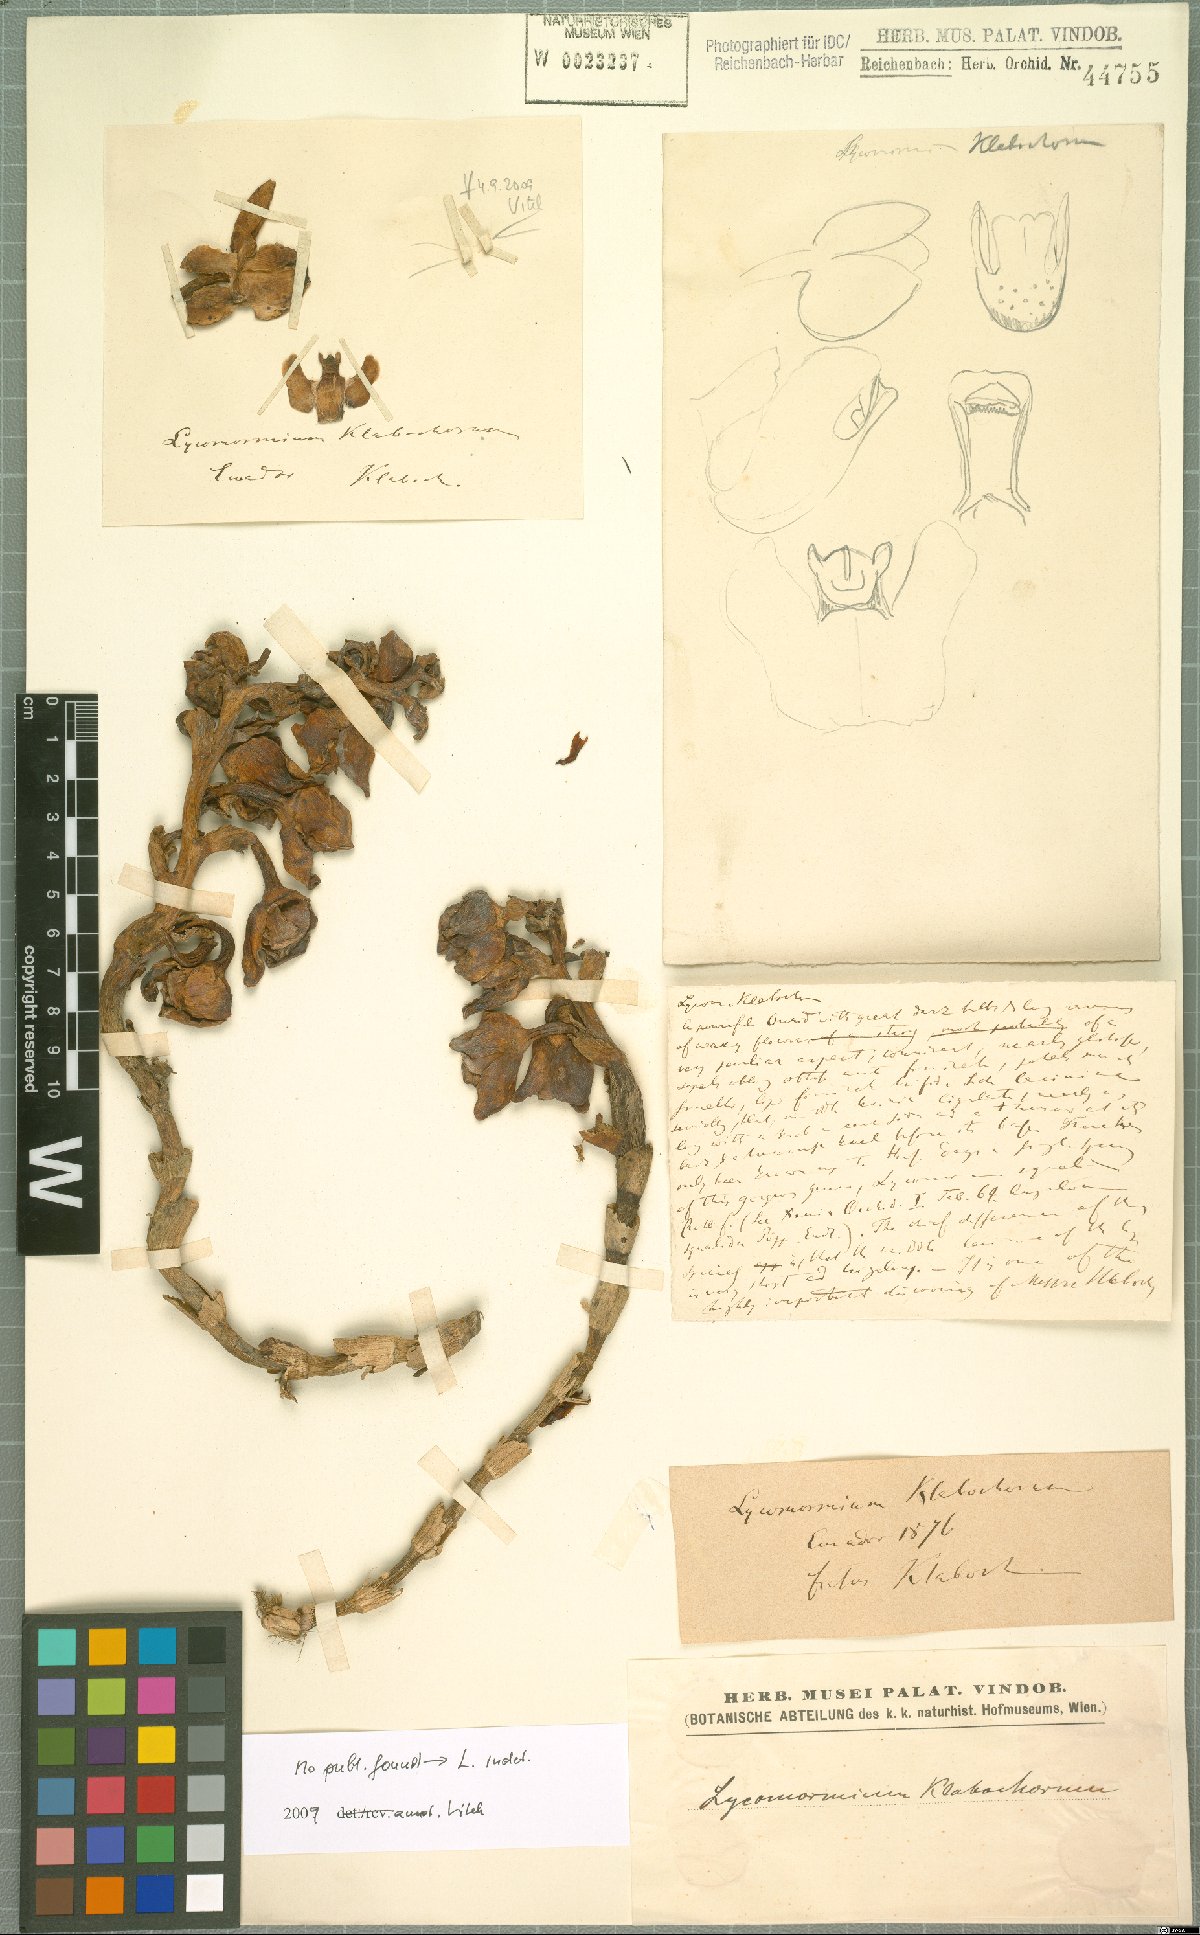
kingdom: Plantae
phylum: Tracheophyta
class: Liliopsida
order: Asparagales
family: Orchidaceae
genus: Lycomormium
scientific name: Lycomormium
